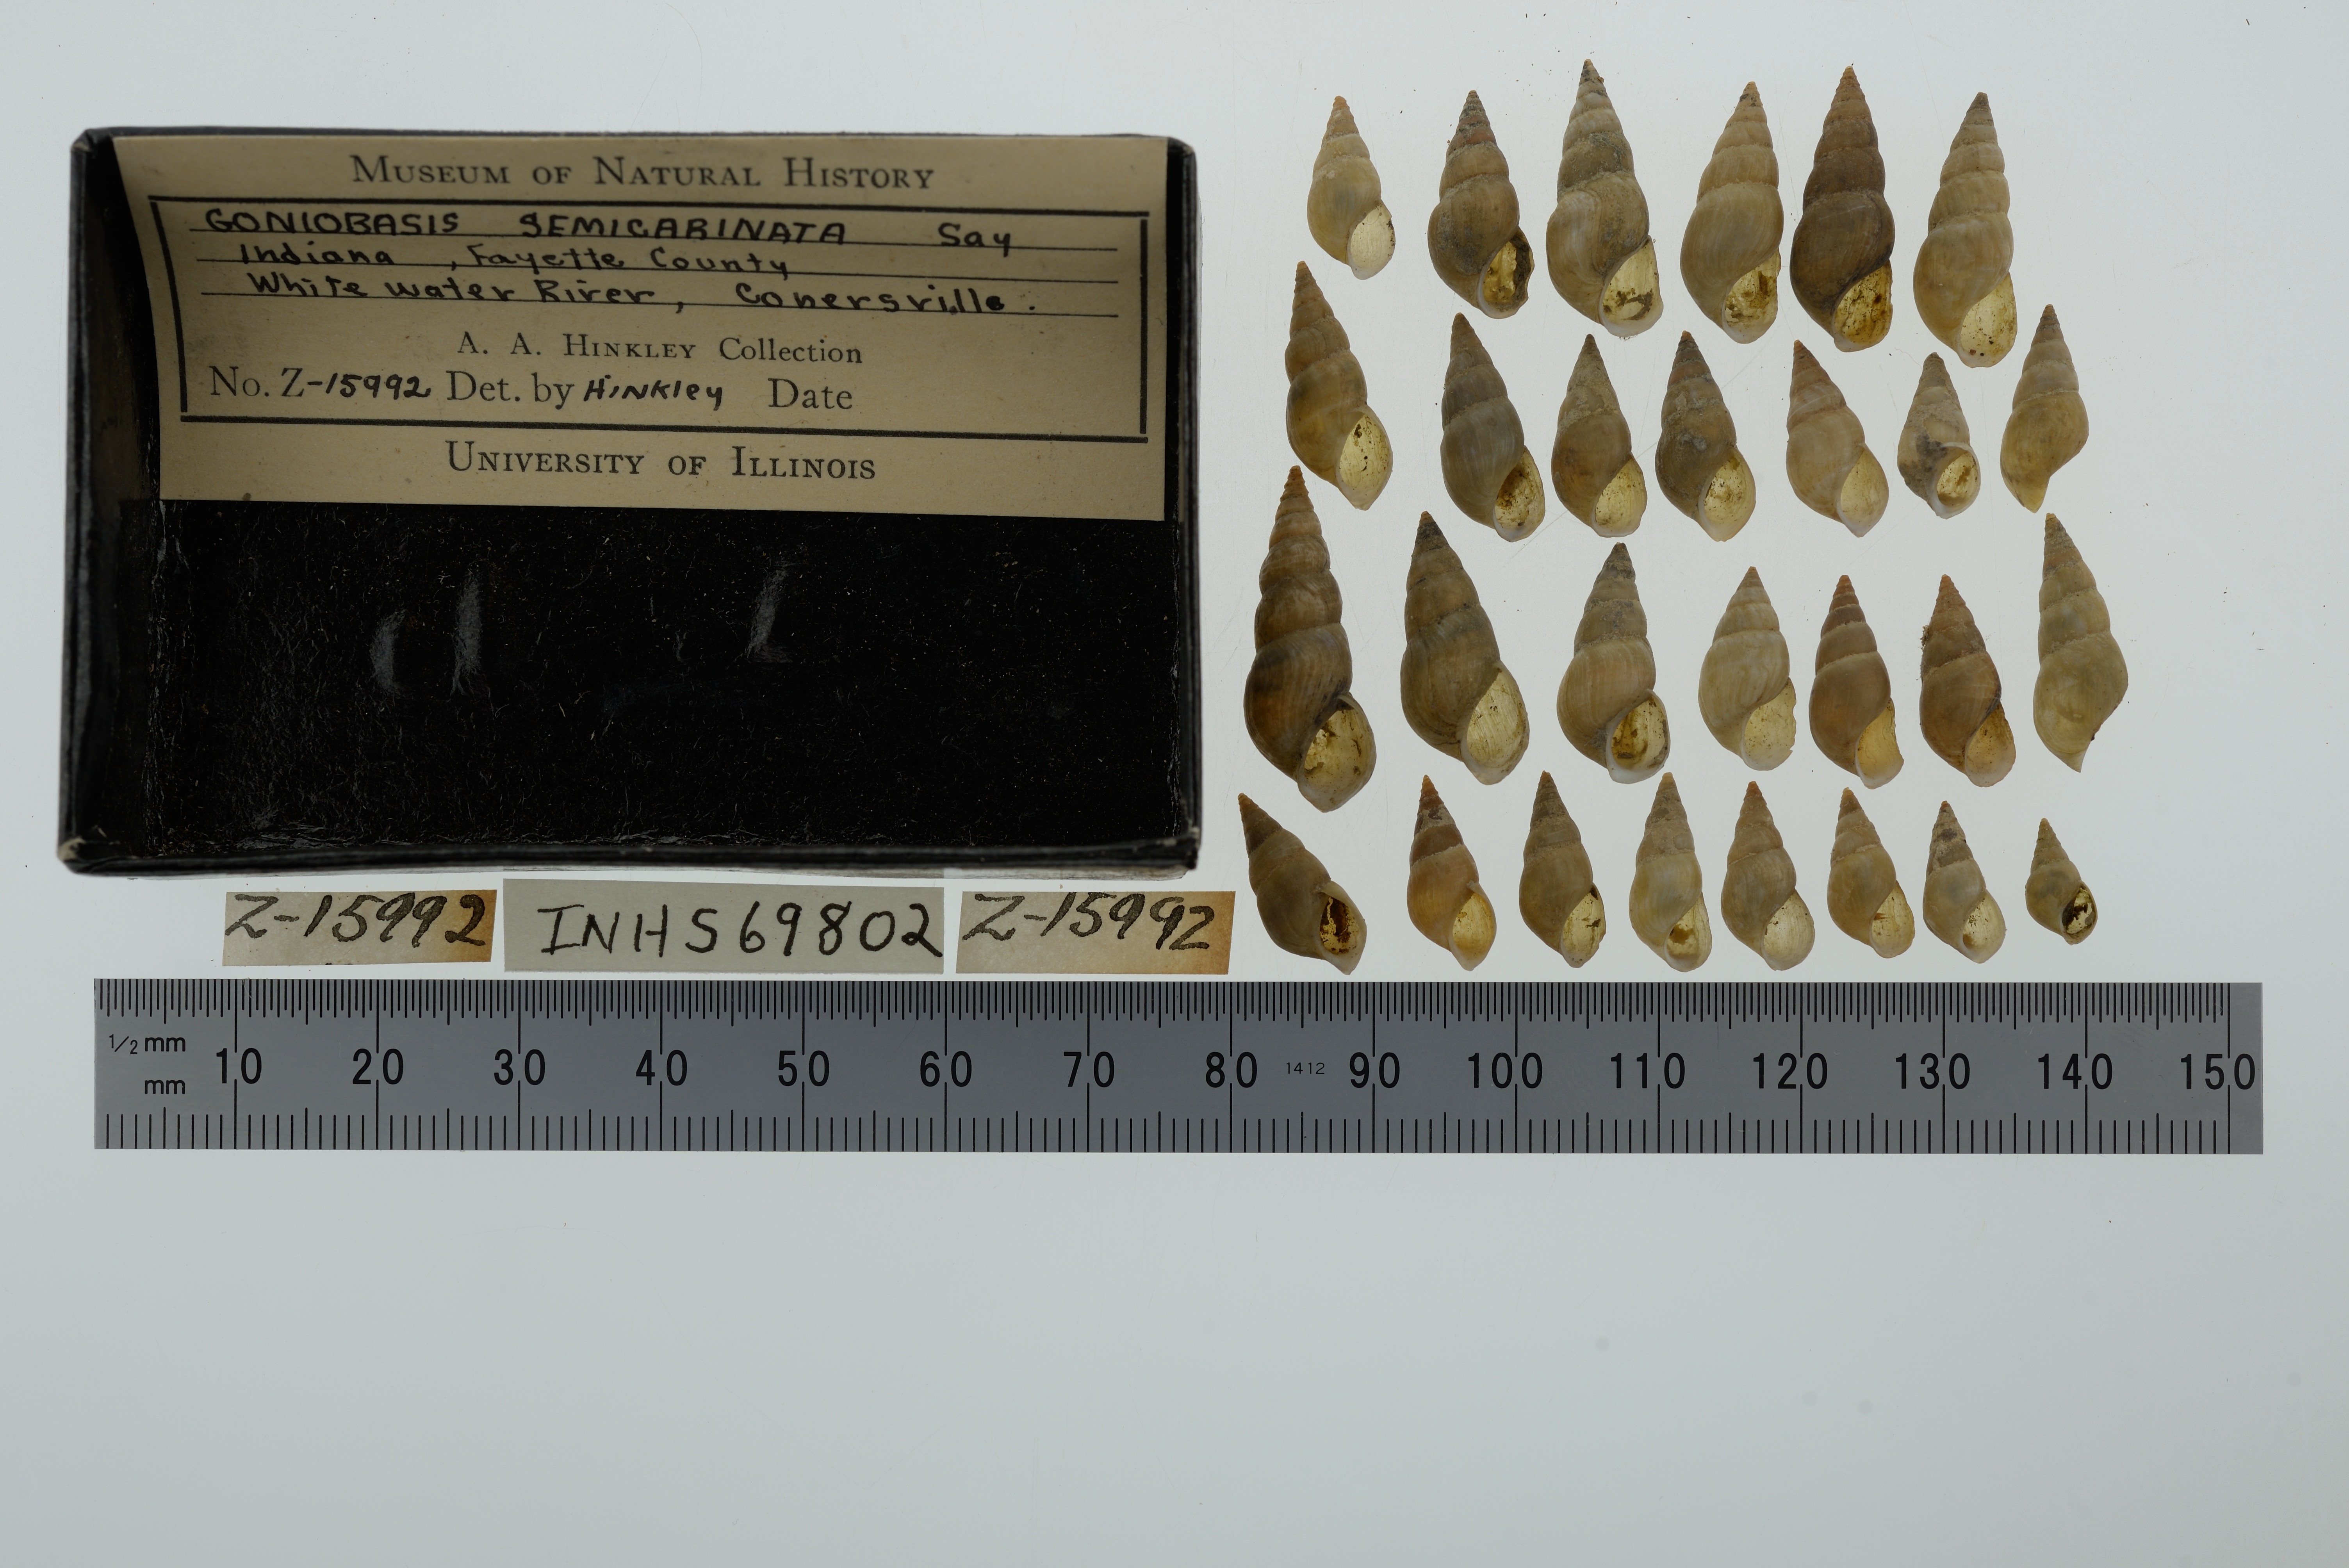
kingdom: Animalia
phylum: Mollusca
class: Gastropoda
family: Pleuroceridae
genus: Elimia
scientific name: Elimia semicarinata
